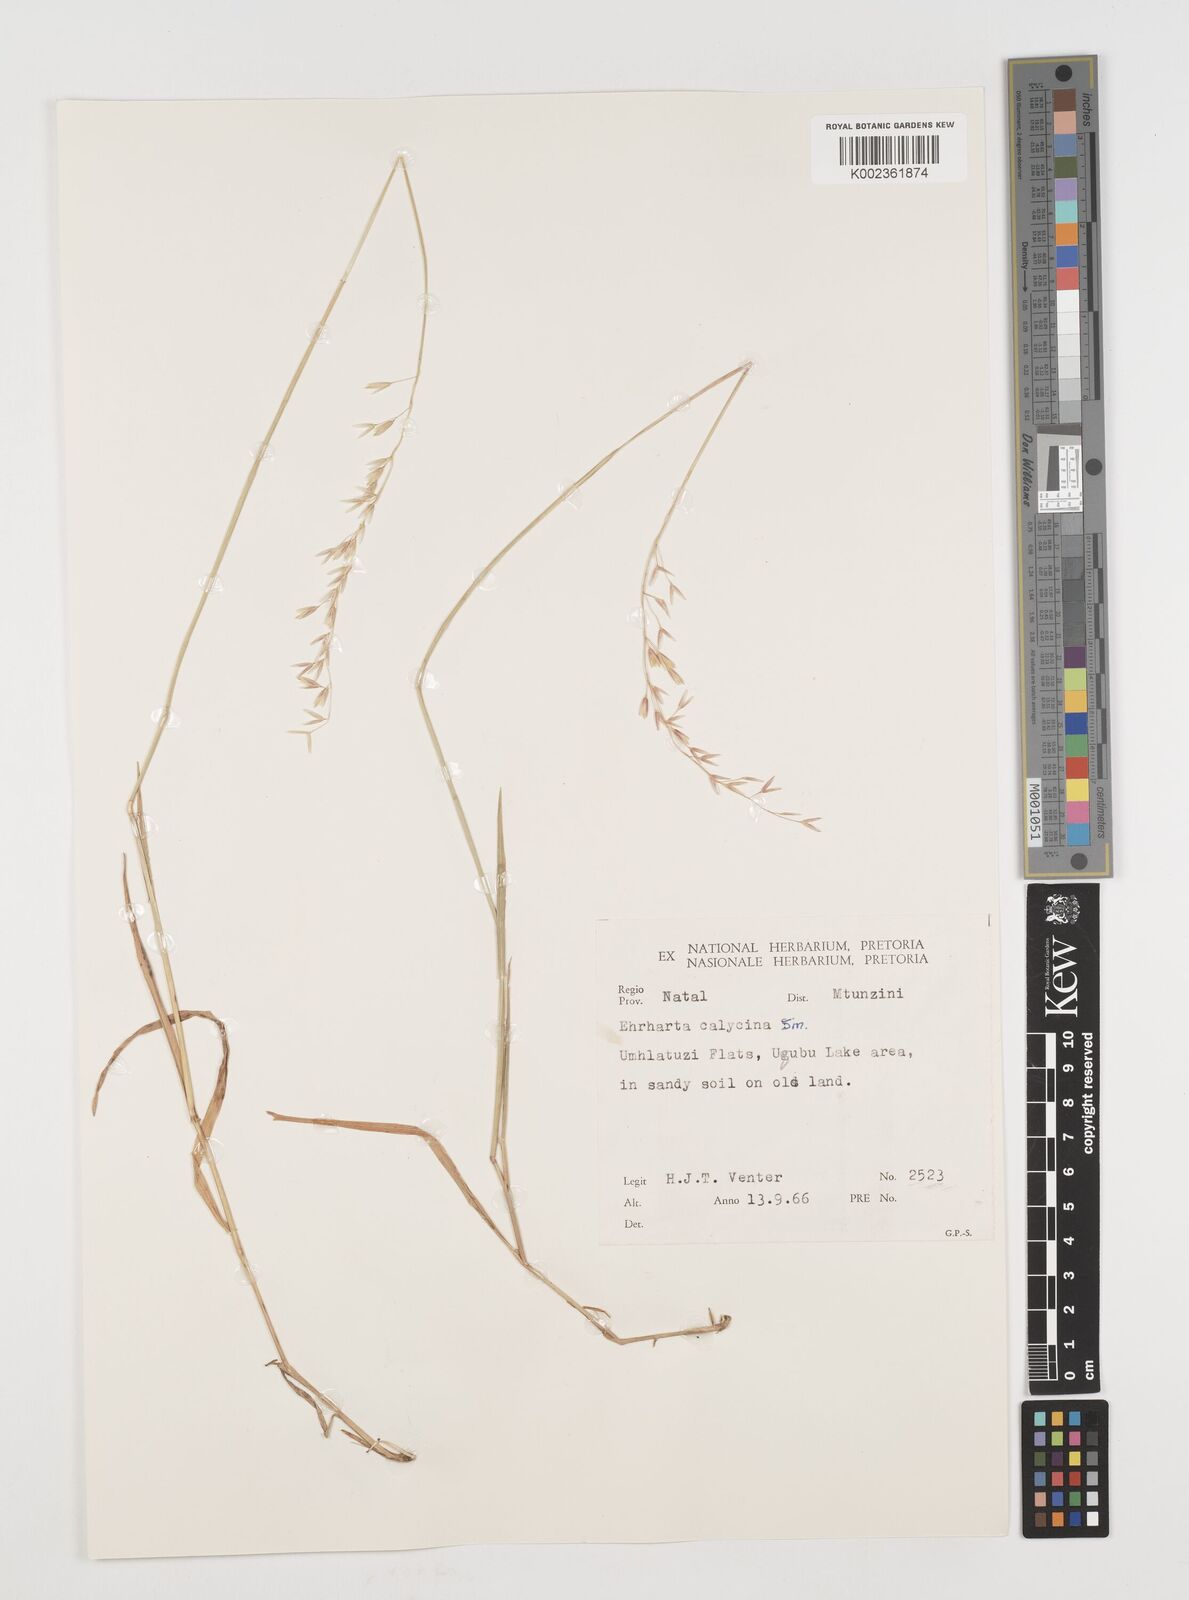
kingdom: Plantae
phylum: Tracheophyta
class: Liliopsida
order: Poales
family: Poaceae
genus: Ehrharta
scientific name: Ehrharta
